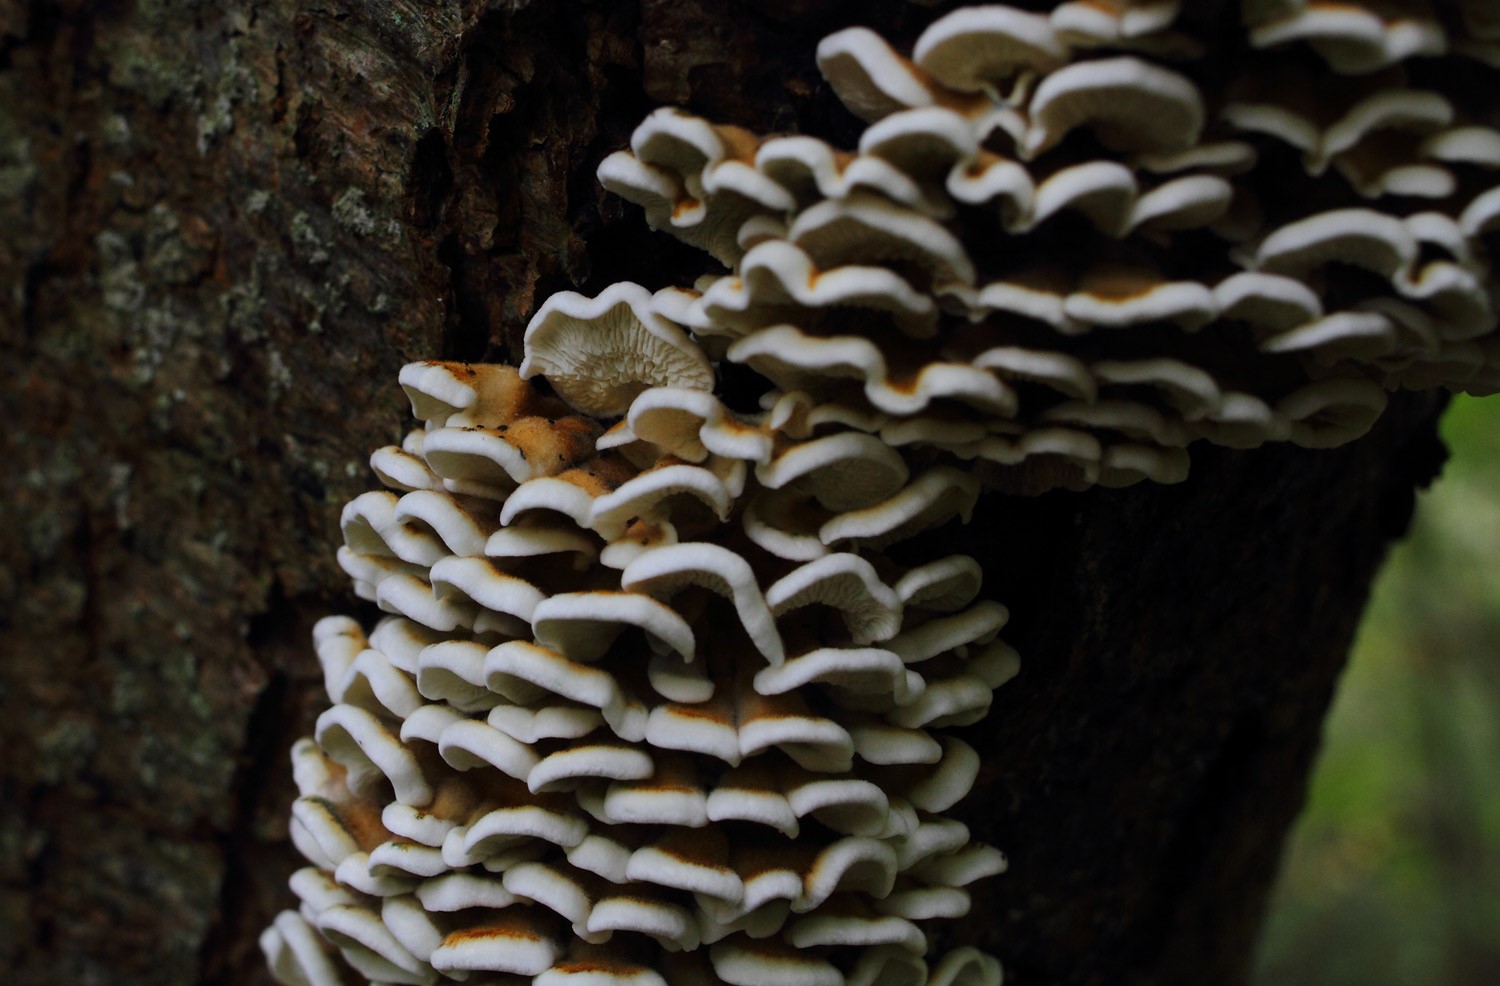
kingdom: Fungi
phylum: Basidiomycota
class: Agaricomycetes
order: Amylocorticiales
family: Amylocorticiaceae
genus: Plicaturopsis
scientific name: Plicaturopsis crispa
